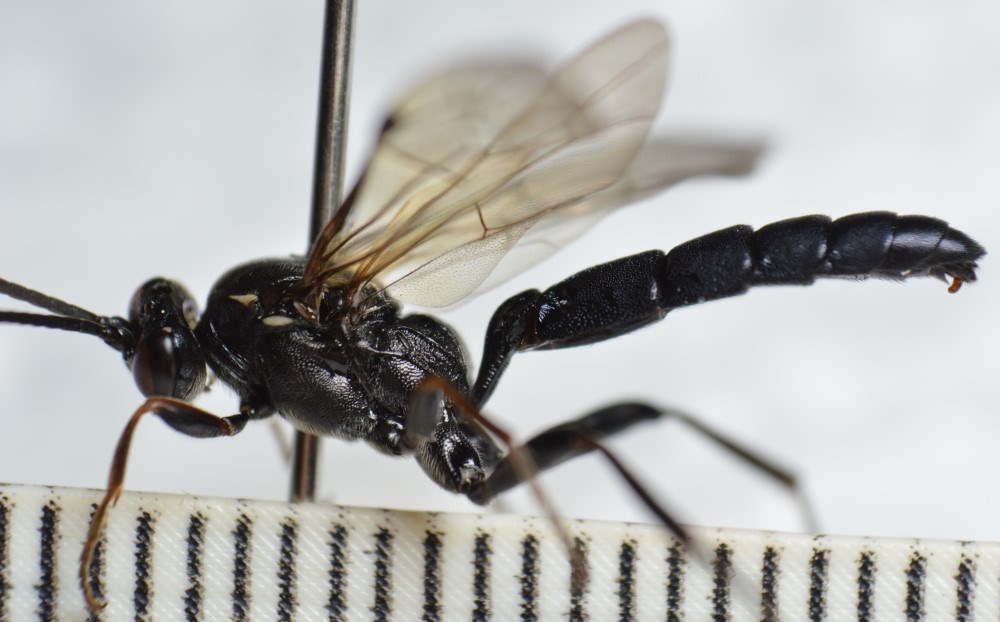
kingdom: Animalia
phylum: Arthropoda
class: Insecta
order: Hymenoptera
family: Ichneumonidae
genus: Coelichneumon
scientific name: Coelichneumon leucocerus
